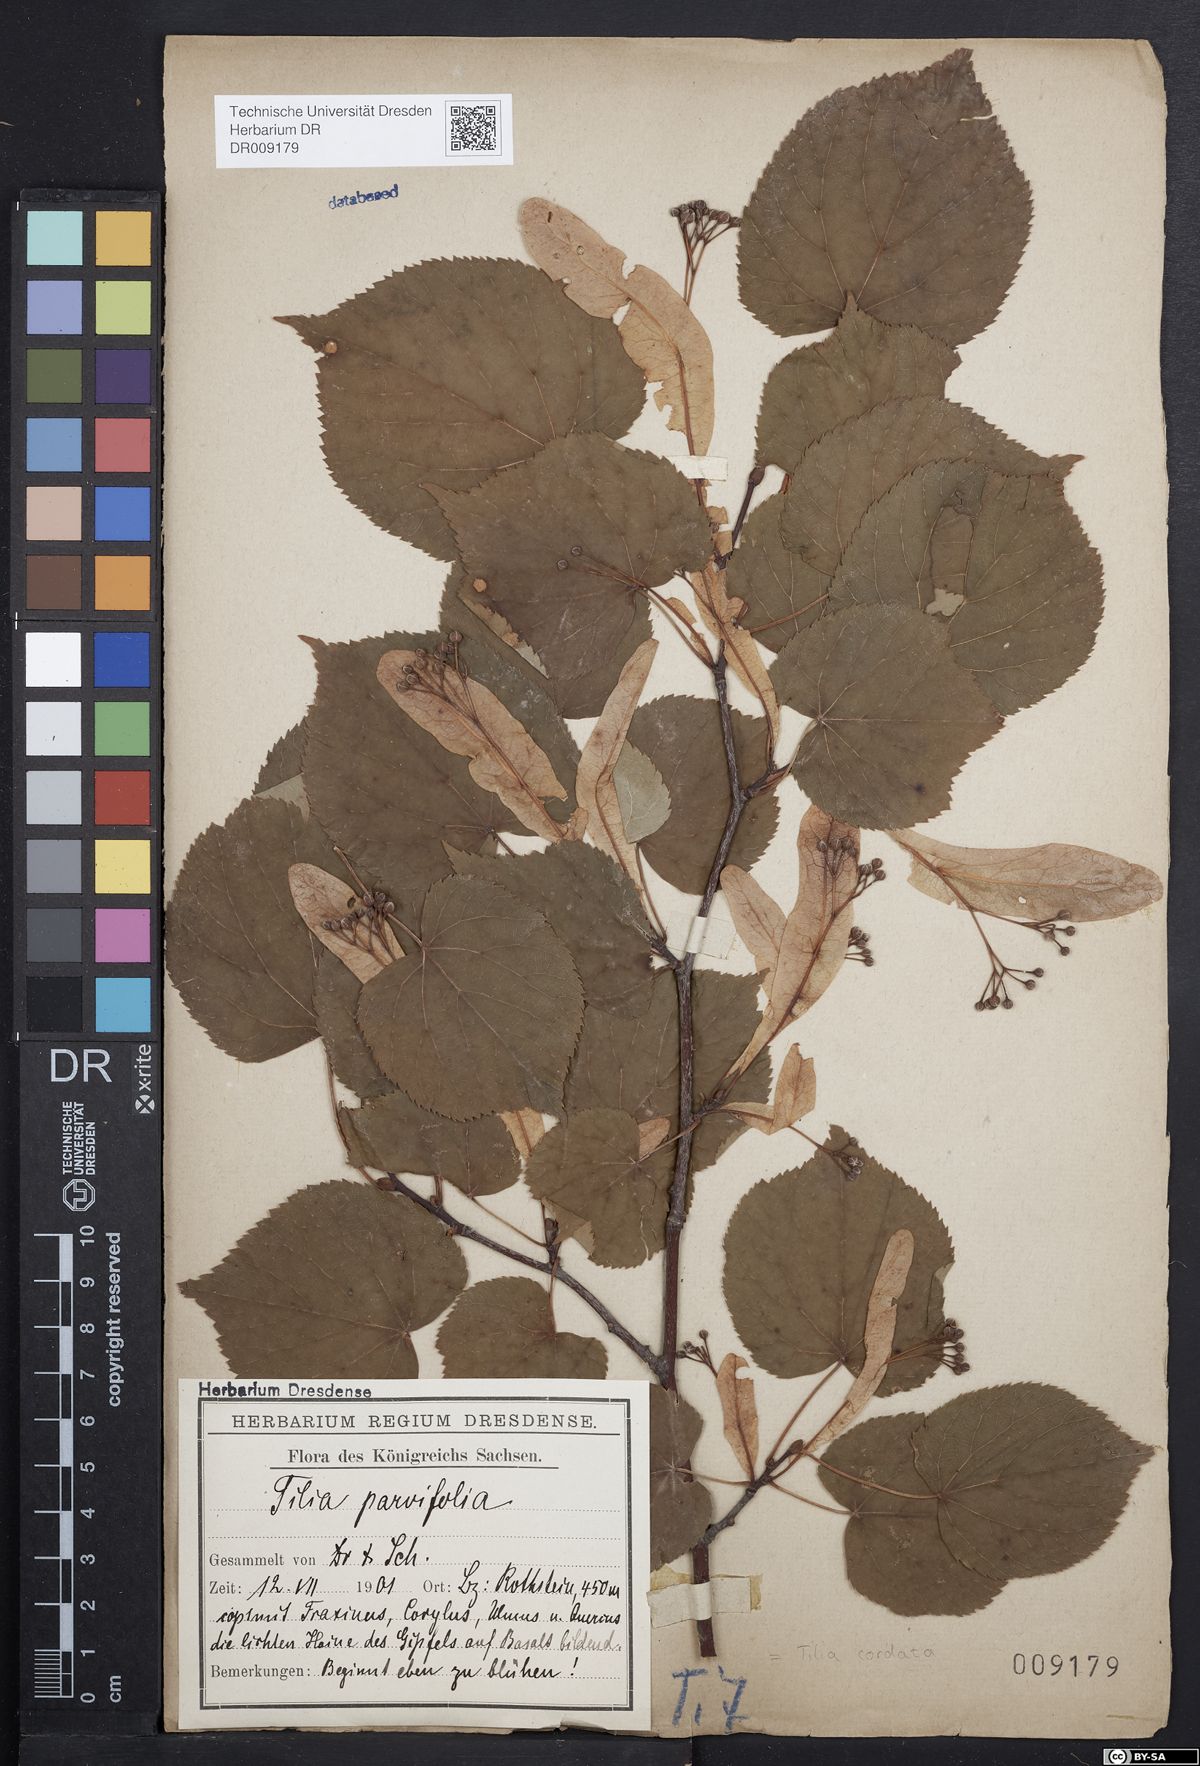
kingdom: Plantae
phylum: Tracheophyta
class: Magnoliopsida
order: Malvales
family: Malvaceae
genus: Tilia
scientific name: Tilia cordata
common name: Small-leaved lime
